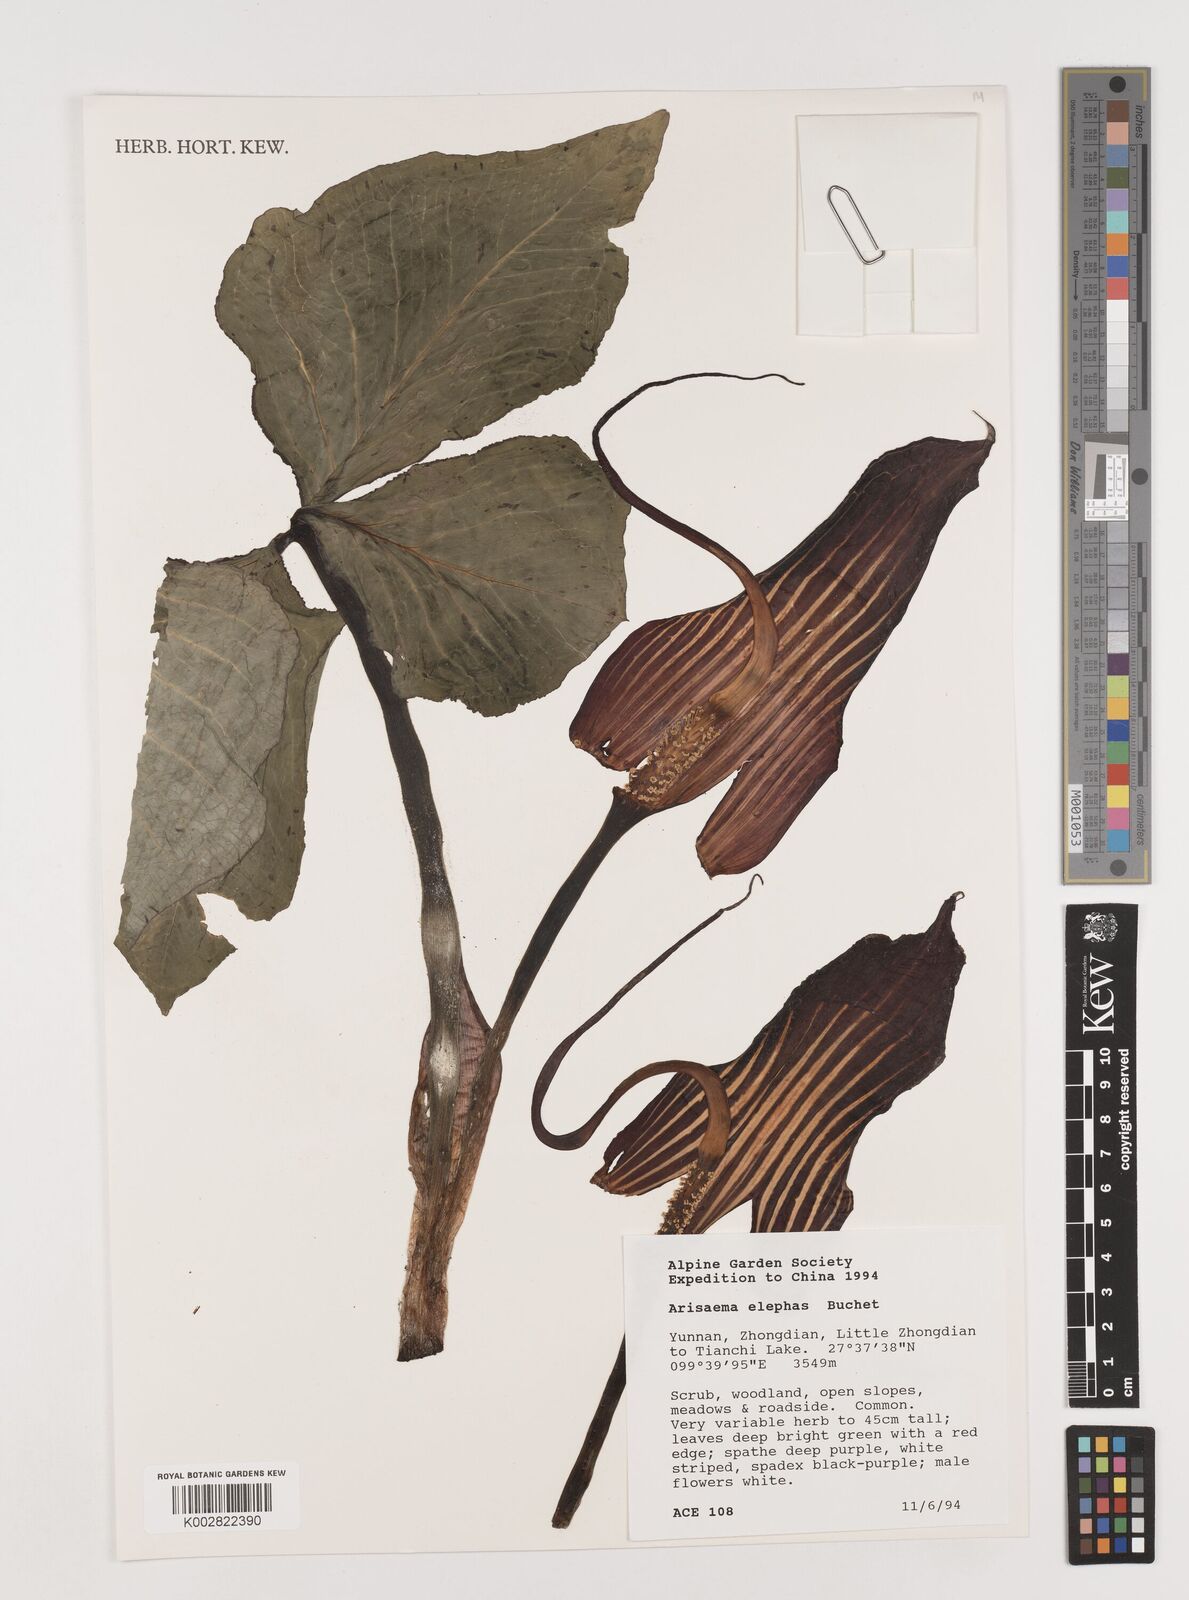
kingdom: Plantae
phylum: Tracheophyta
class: Liliopsida
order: Alismatales
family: Araceae
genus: Arisaema
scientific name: Arisaema elephas
